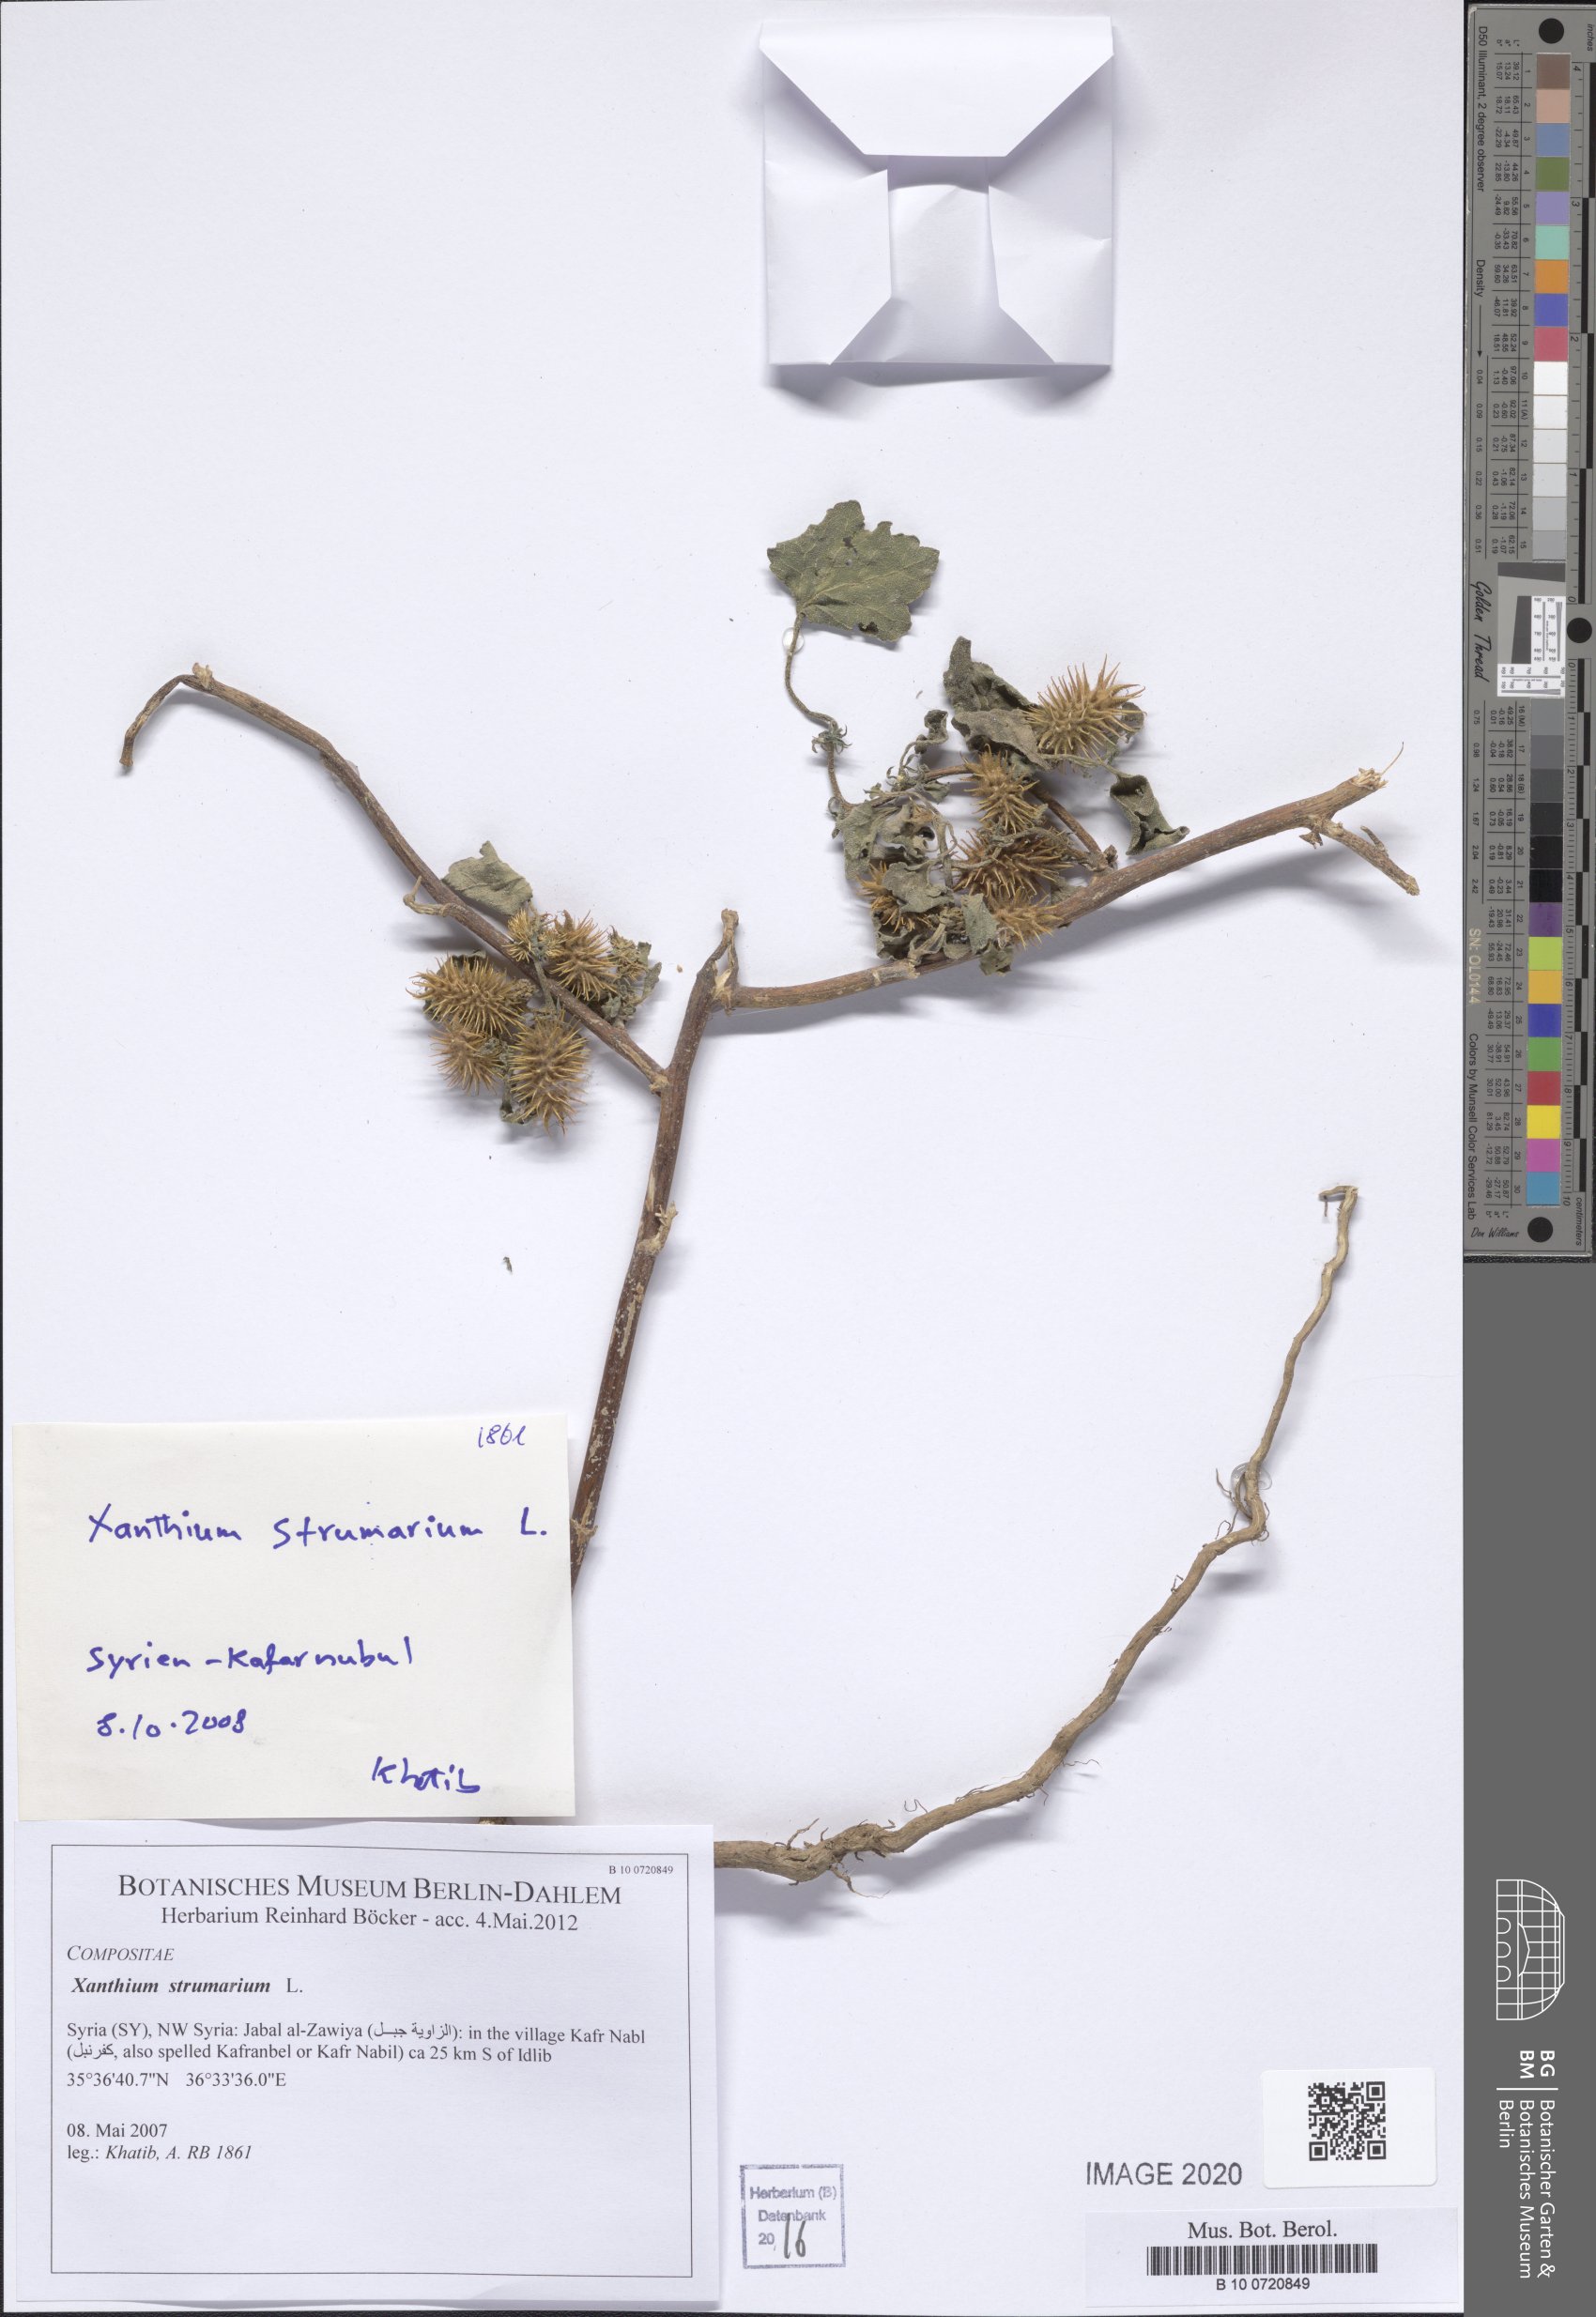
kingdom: Plantae
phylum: Tracheophyta
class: Magnoliopsida
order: Asterales
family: Asteraceae
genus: Xanthium
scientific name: Xanthium strumarium
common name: Rough cocklebur
